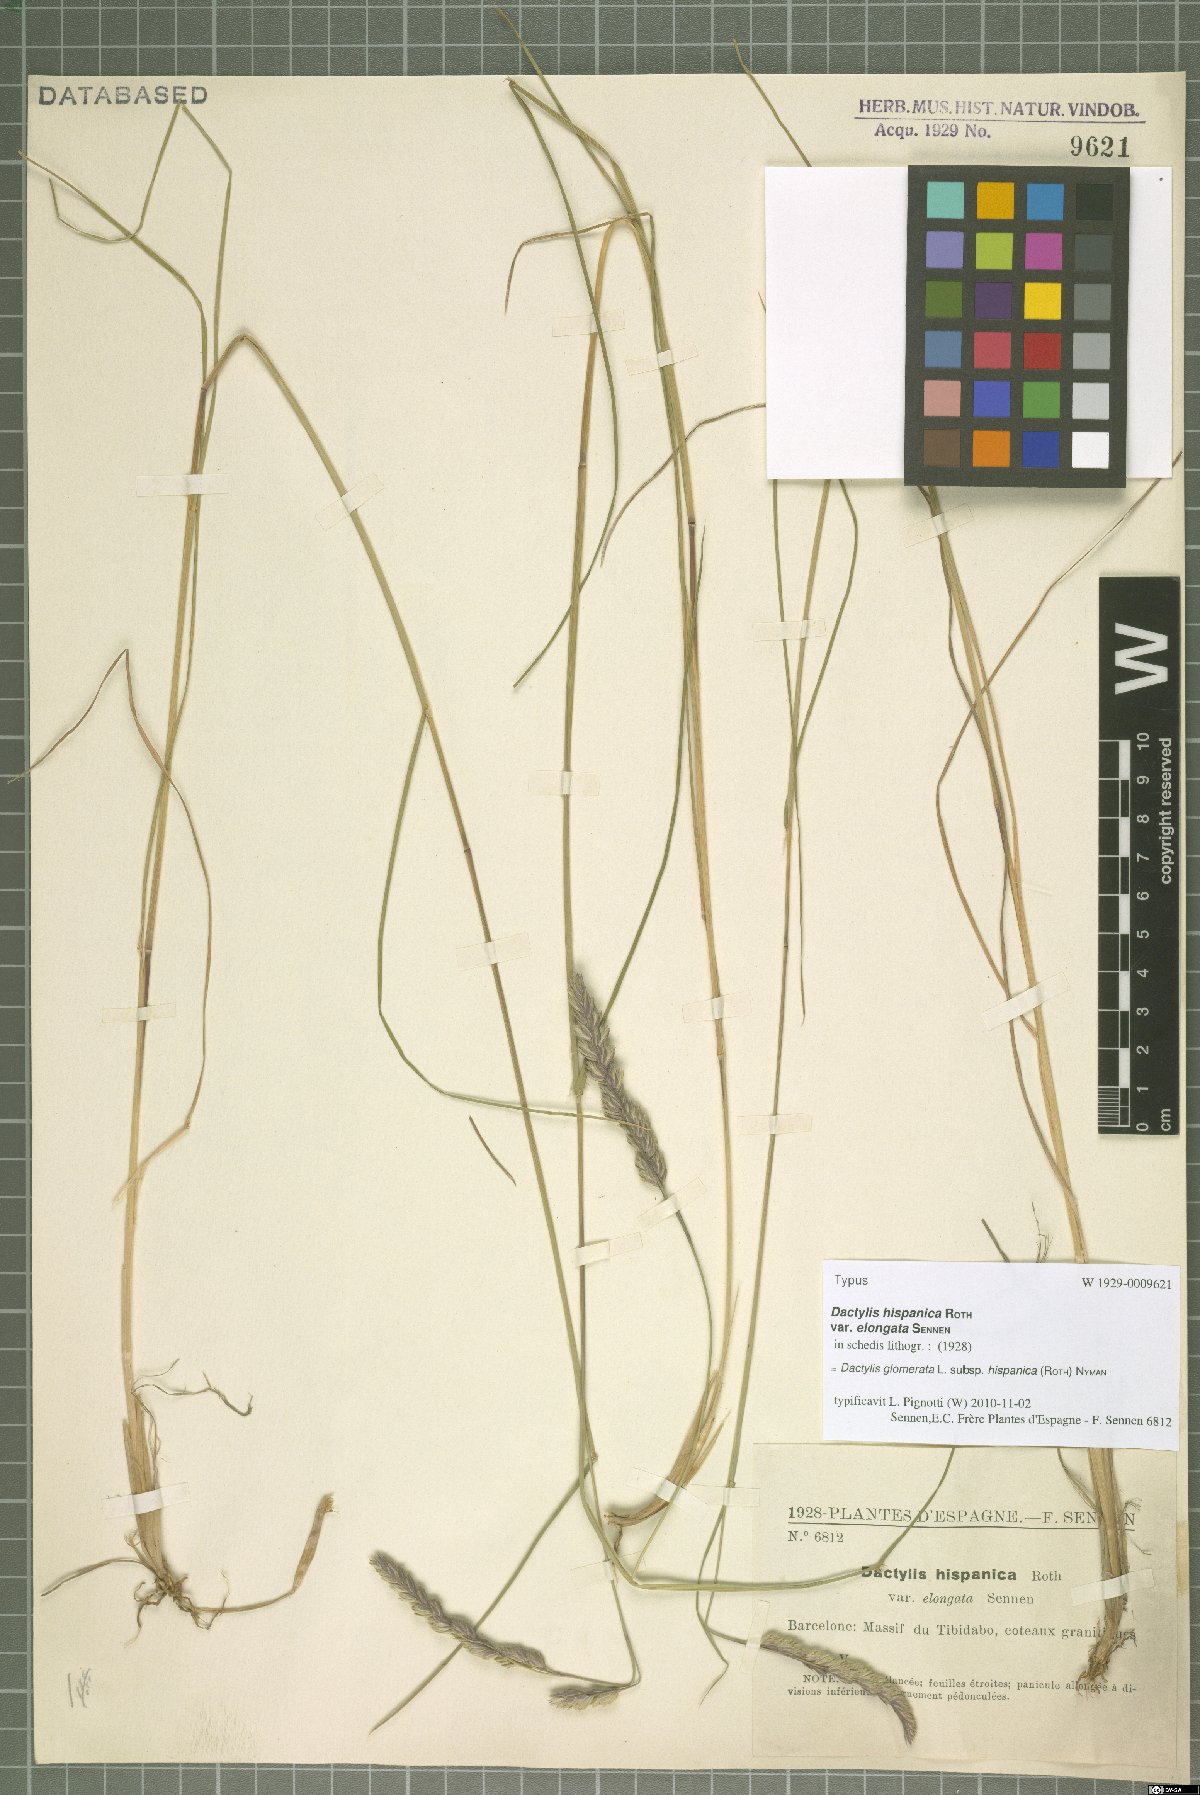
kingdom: Plantae
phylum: Tracheophyta
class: Liliopsida
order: Poales
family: Poaceae
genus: Dactylis
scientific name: Dactylis glomerata
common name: Orchardgrass
